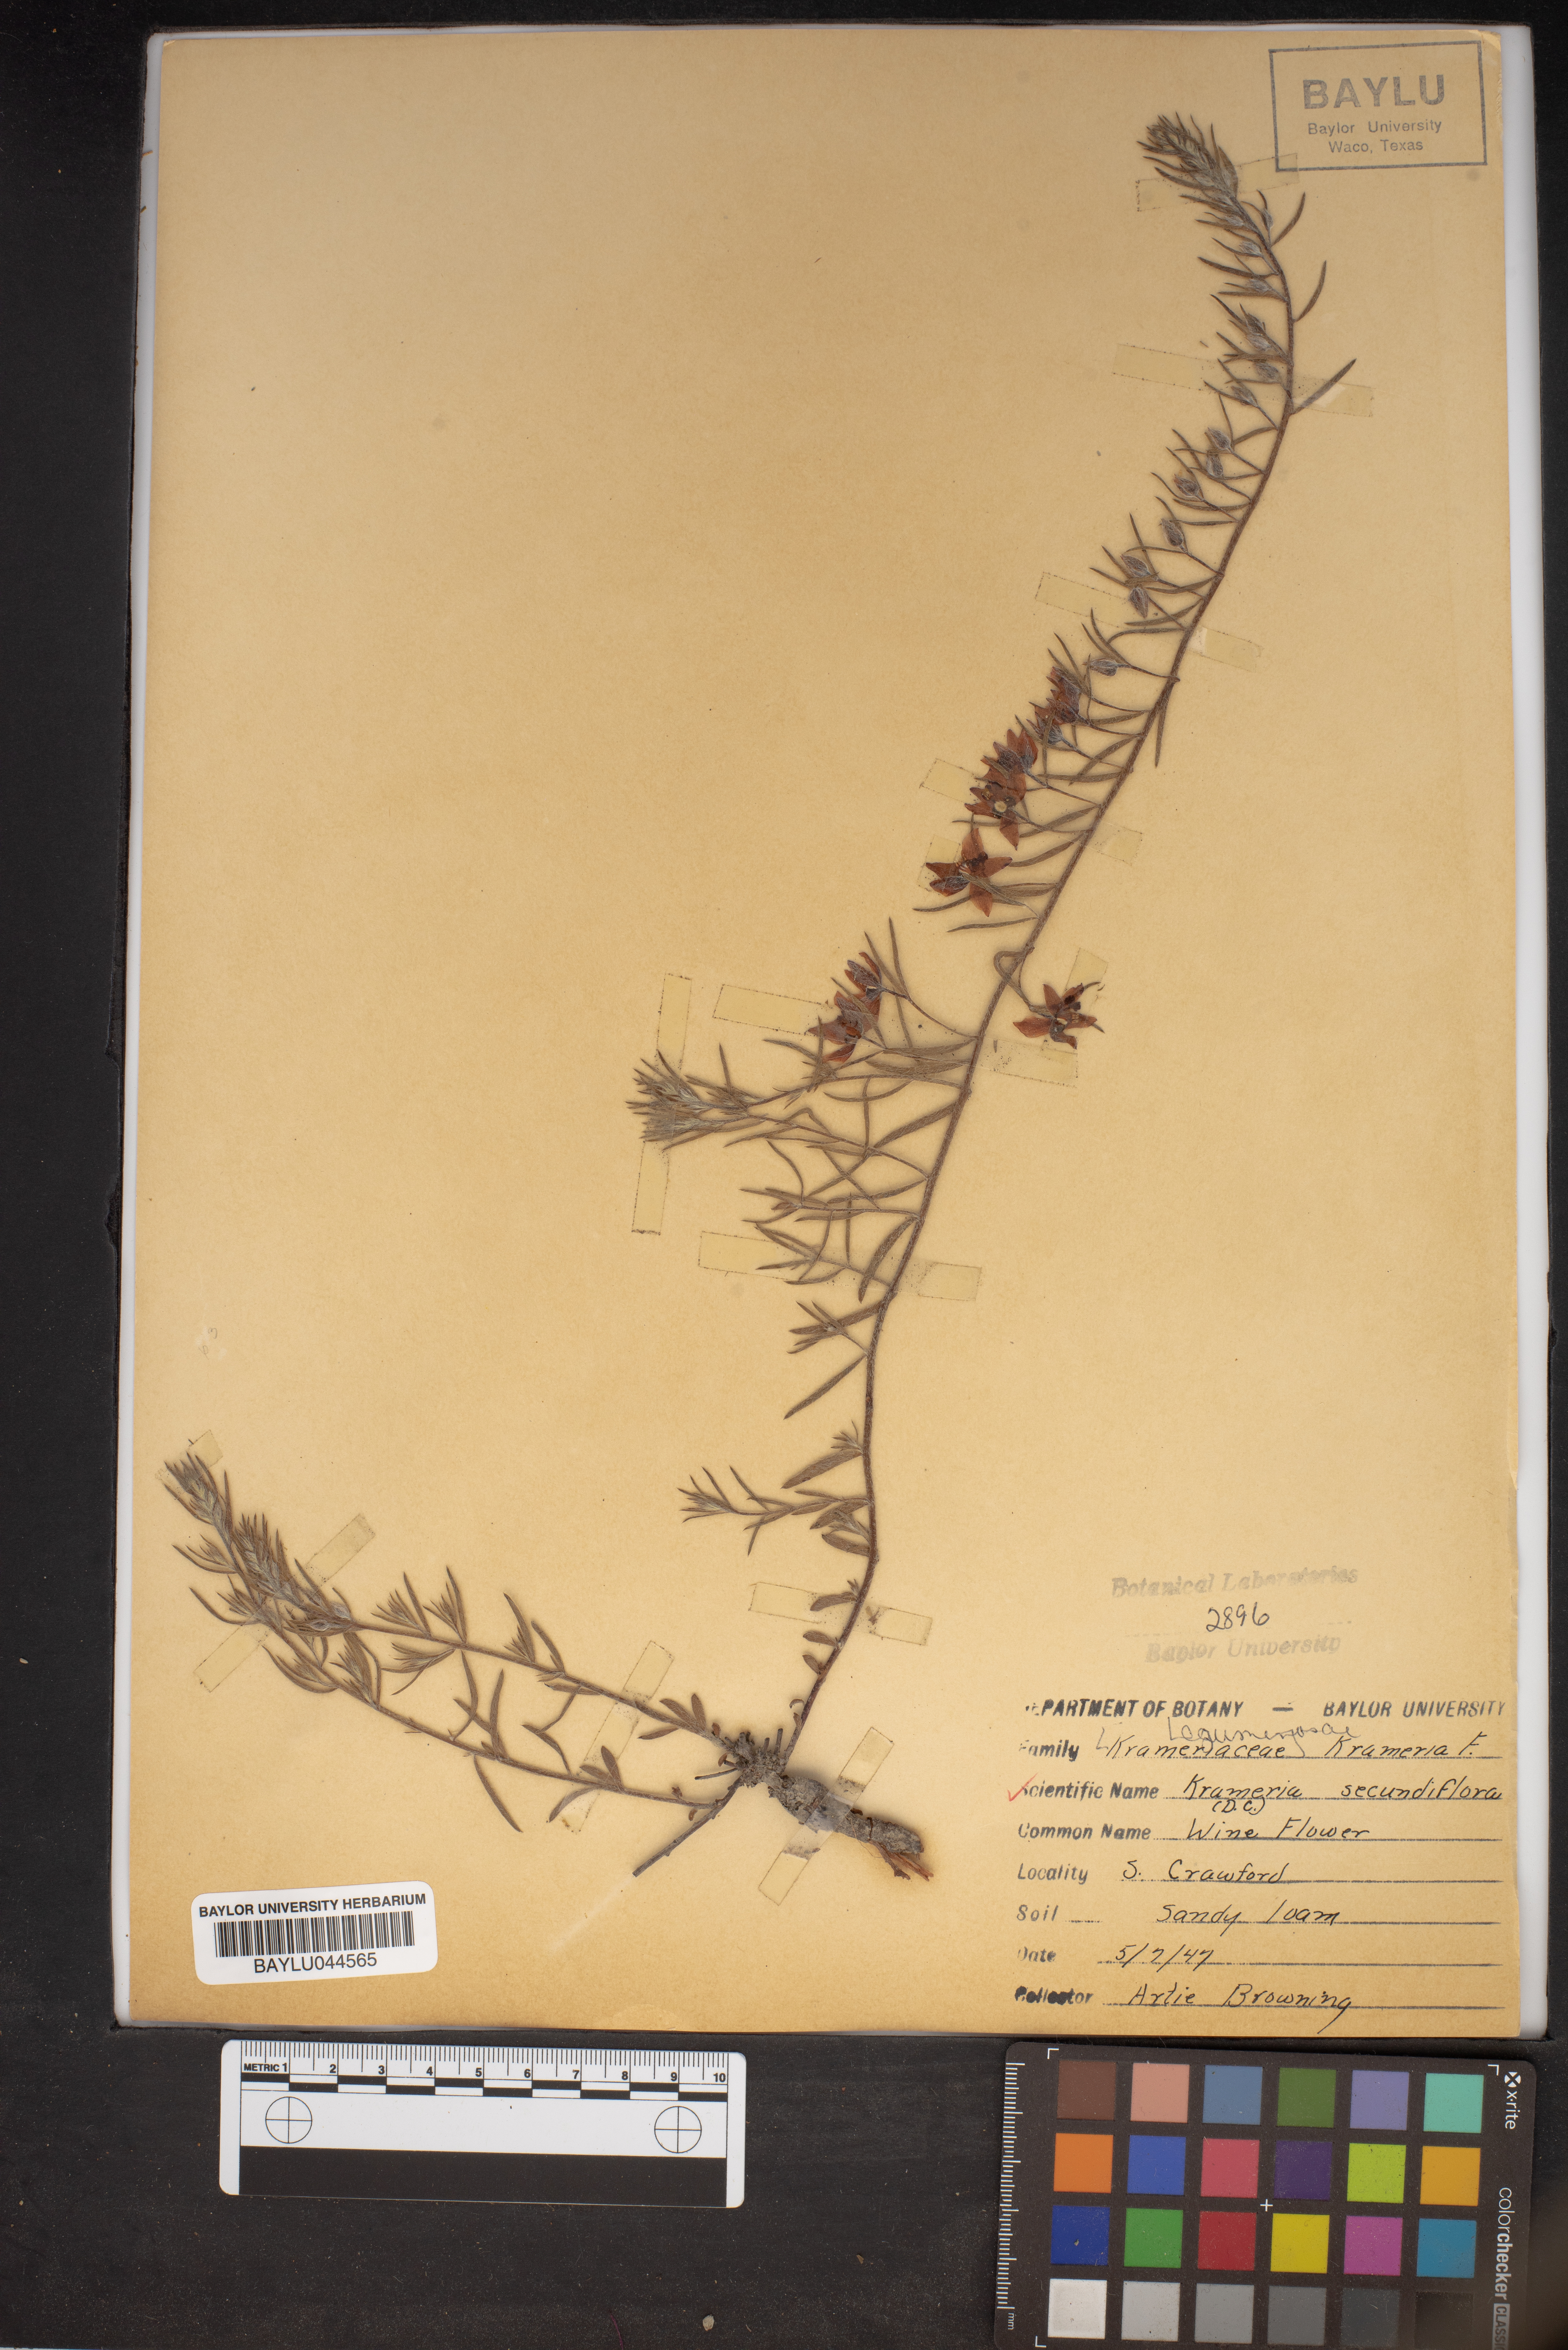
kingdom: Plantae
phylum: Tracheophyta
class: Magnoliopsida
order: Zygophyllales
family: Krameriaceae
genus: Krameria
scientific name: Krameria secundiflora
